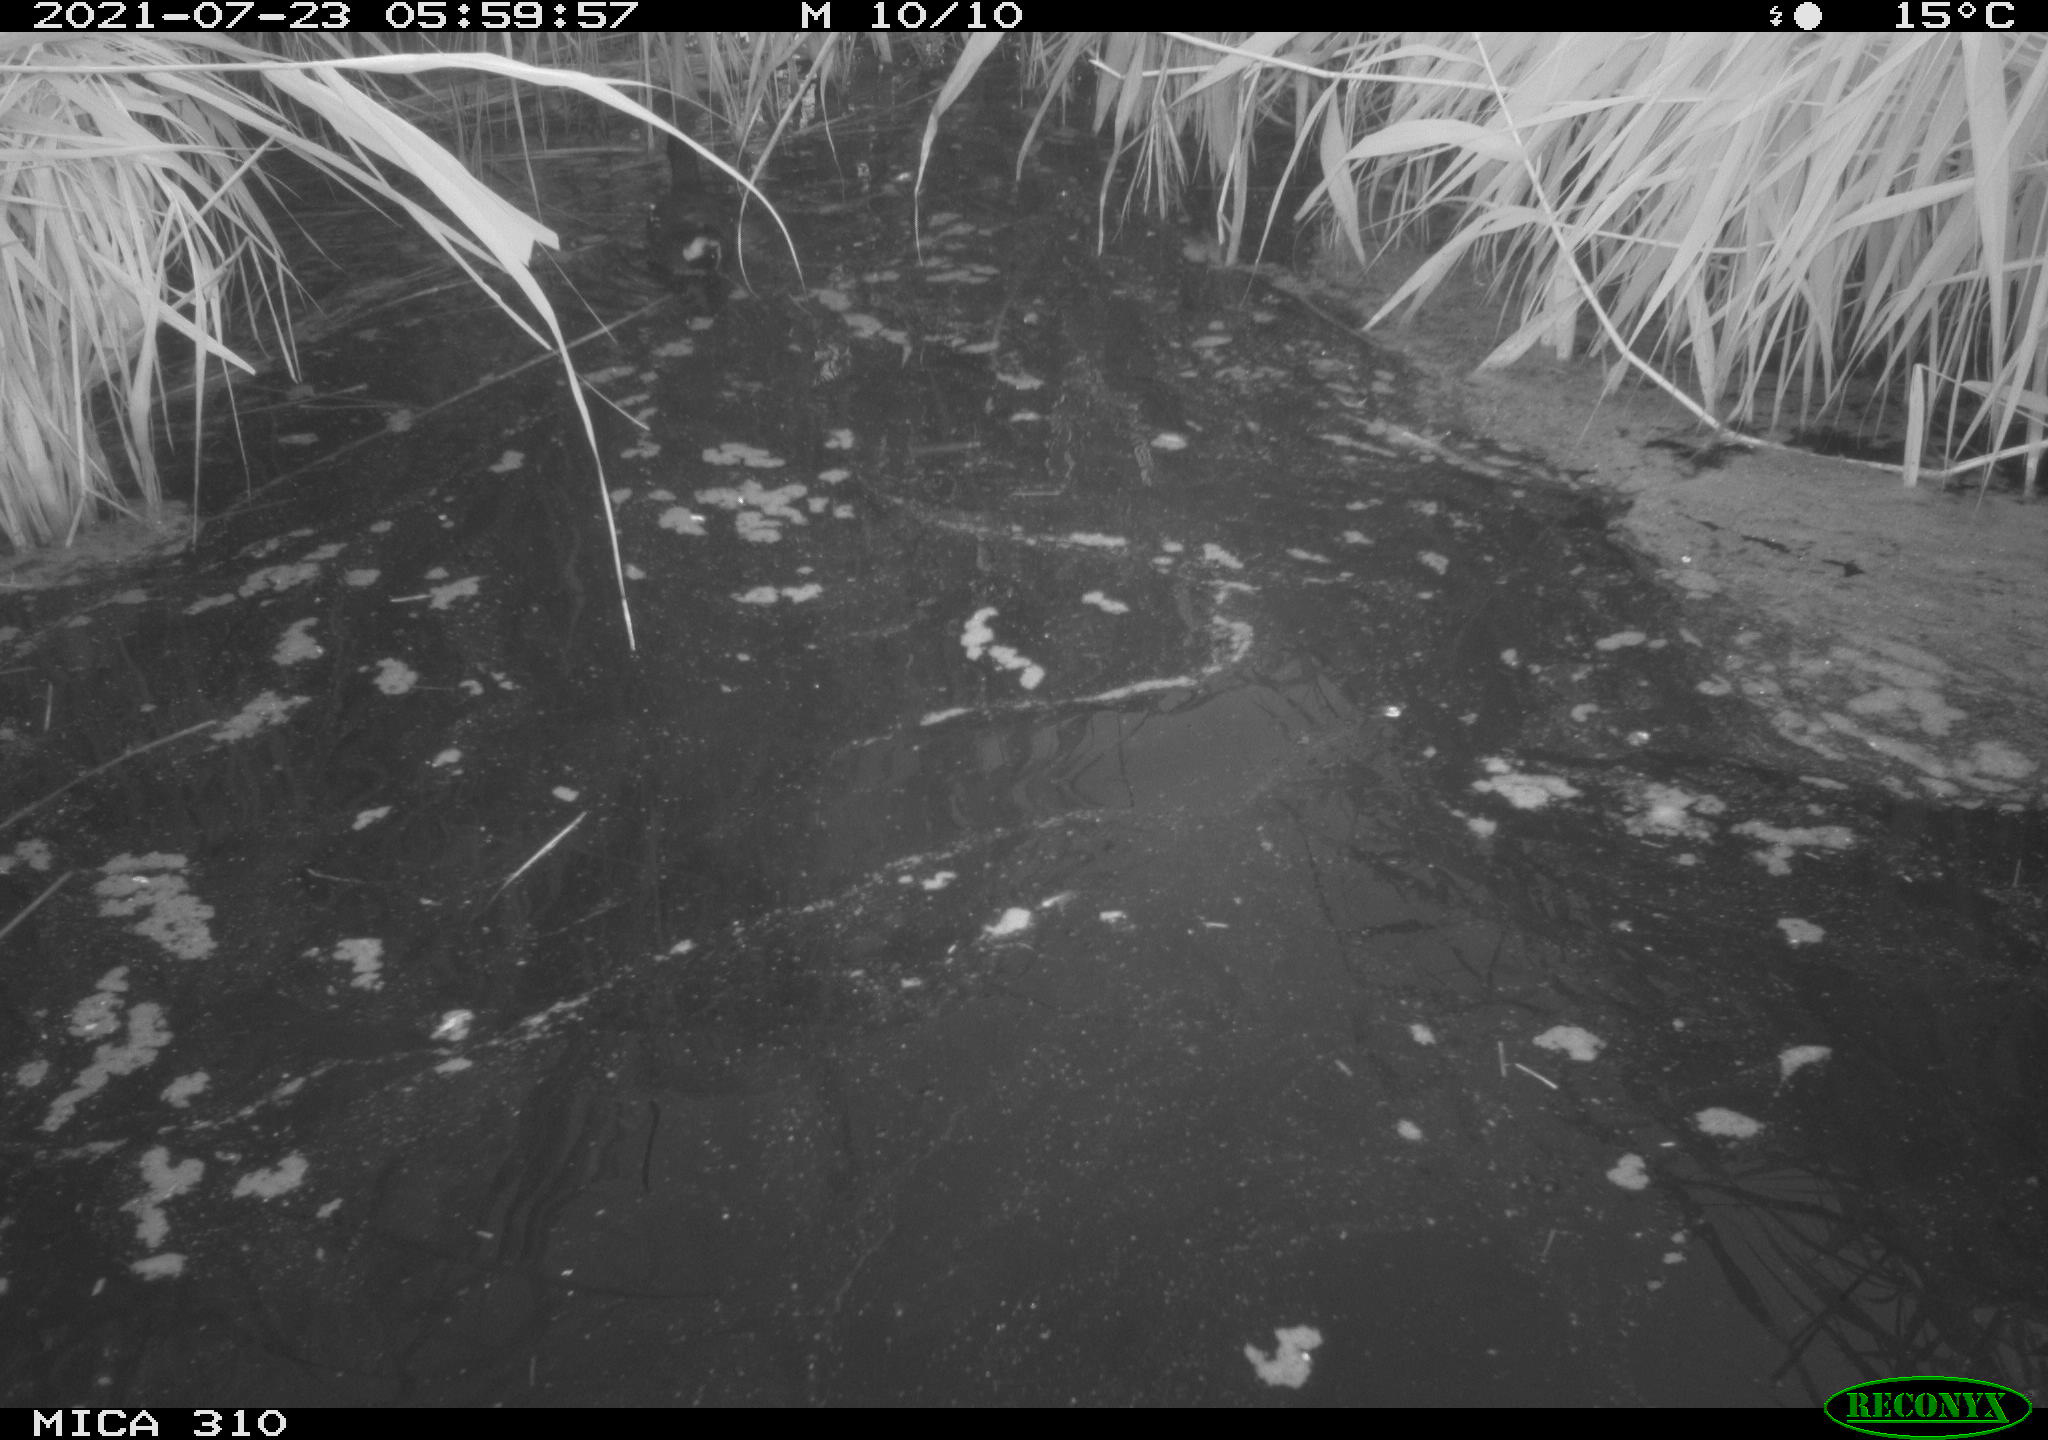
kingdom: Animalia
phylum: Chordata
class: Aves
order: Gruiformes
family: Rallidae
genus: Gallinula
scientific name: Gallinula chloropus
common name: Common moorhen
